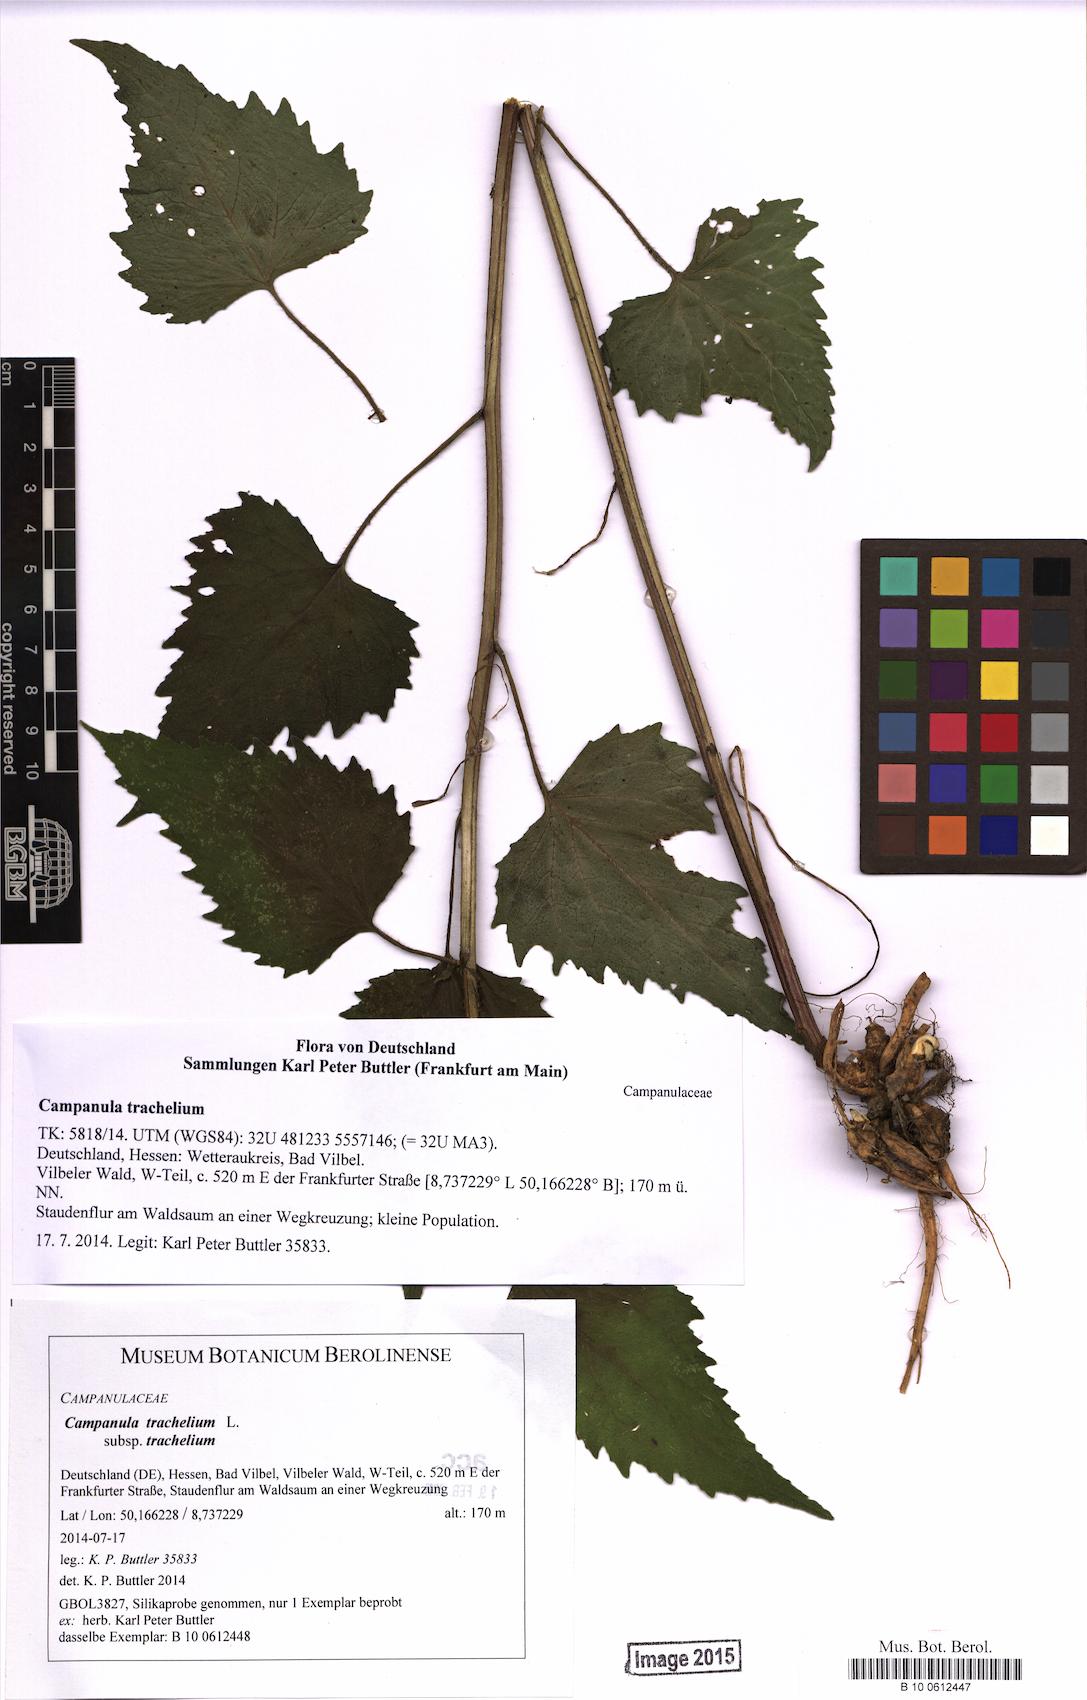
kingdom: Plantae
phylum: Tracheophyta
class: Magnoliopsida
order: Asterales
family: Campanulaceae
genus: Campanula
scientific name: Campanula trachelium
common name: Nettle-leaved bellflower
